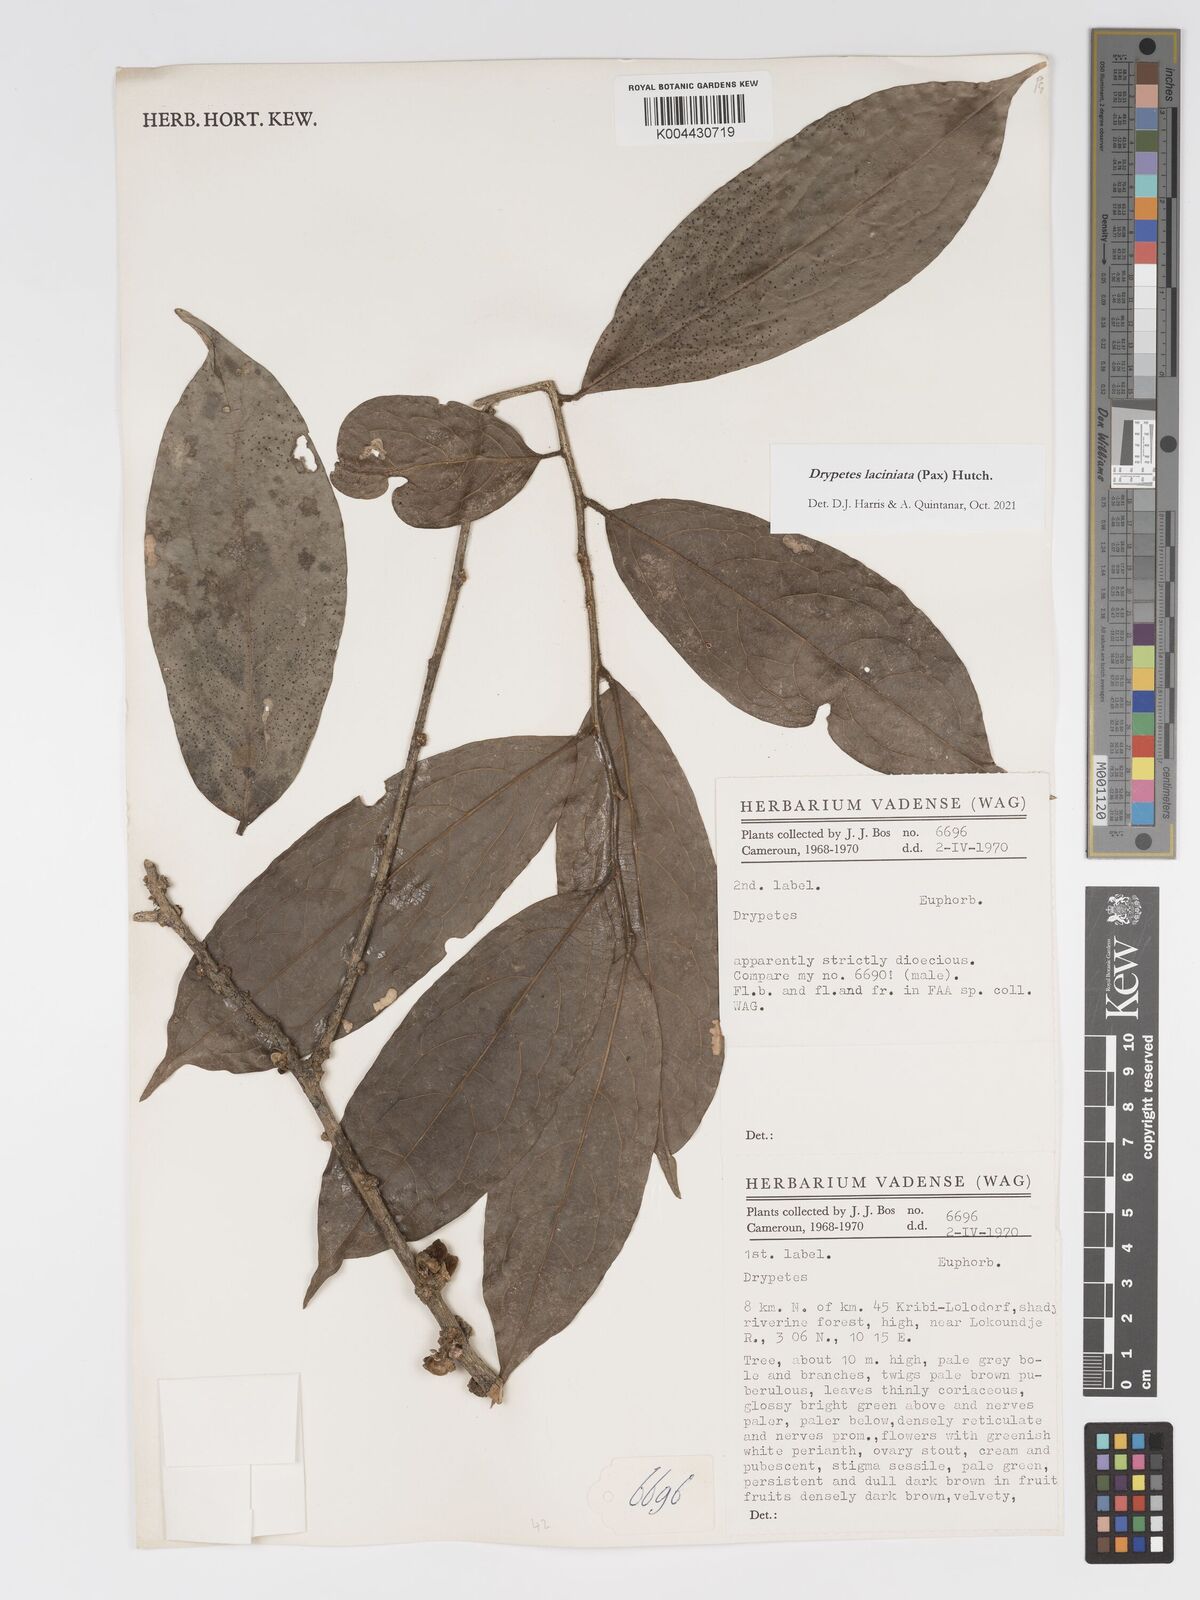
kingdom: Plantae
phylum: Tracheophyta
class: Magnoliopsida
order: Malpighiales
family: Putranjivaceae
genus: Drypetes
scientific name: Drypetes laciniata
